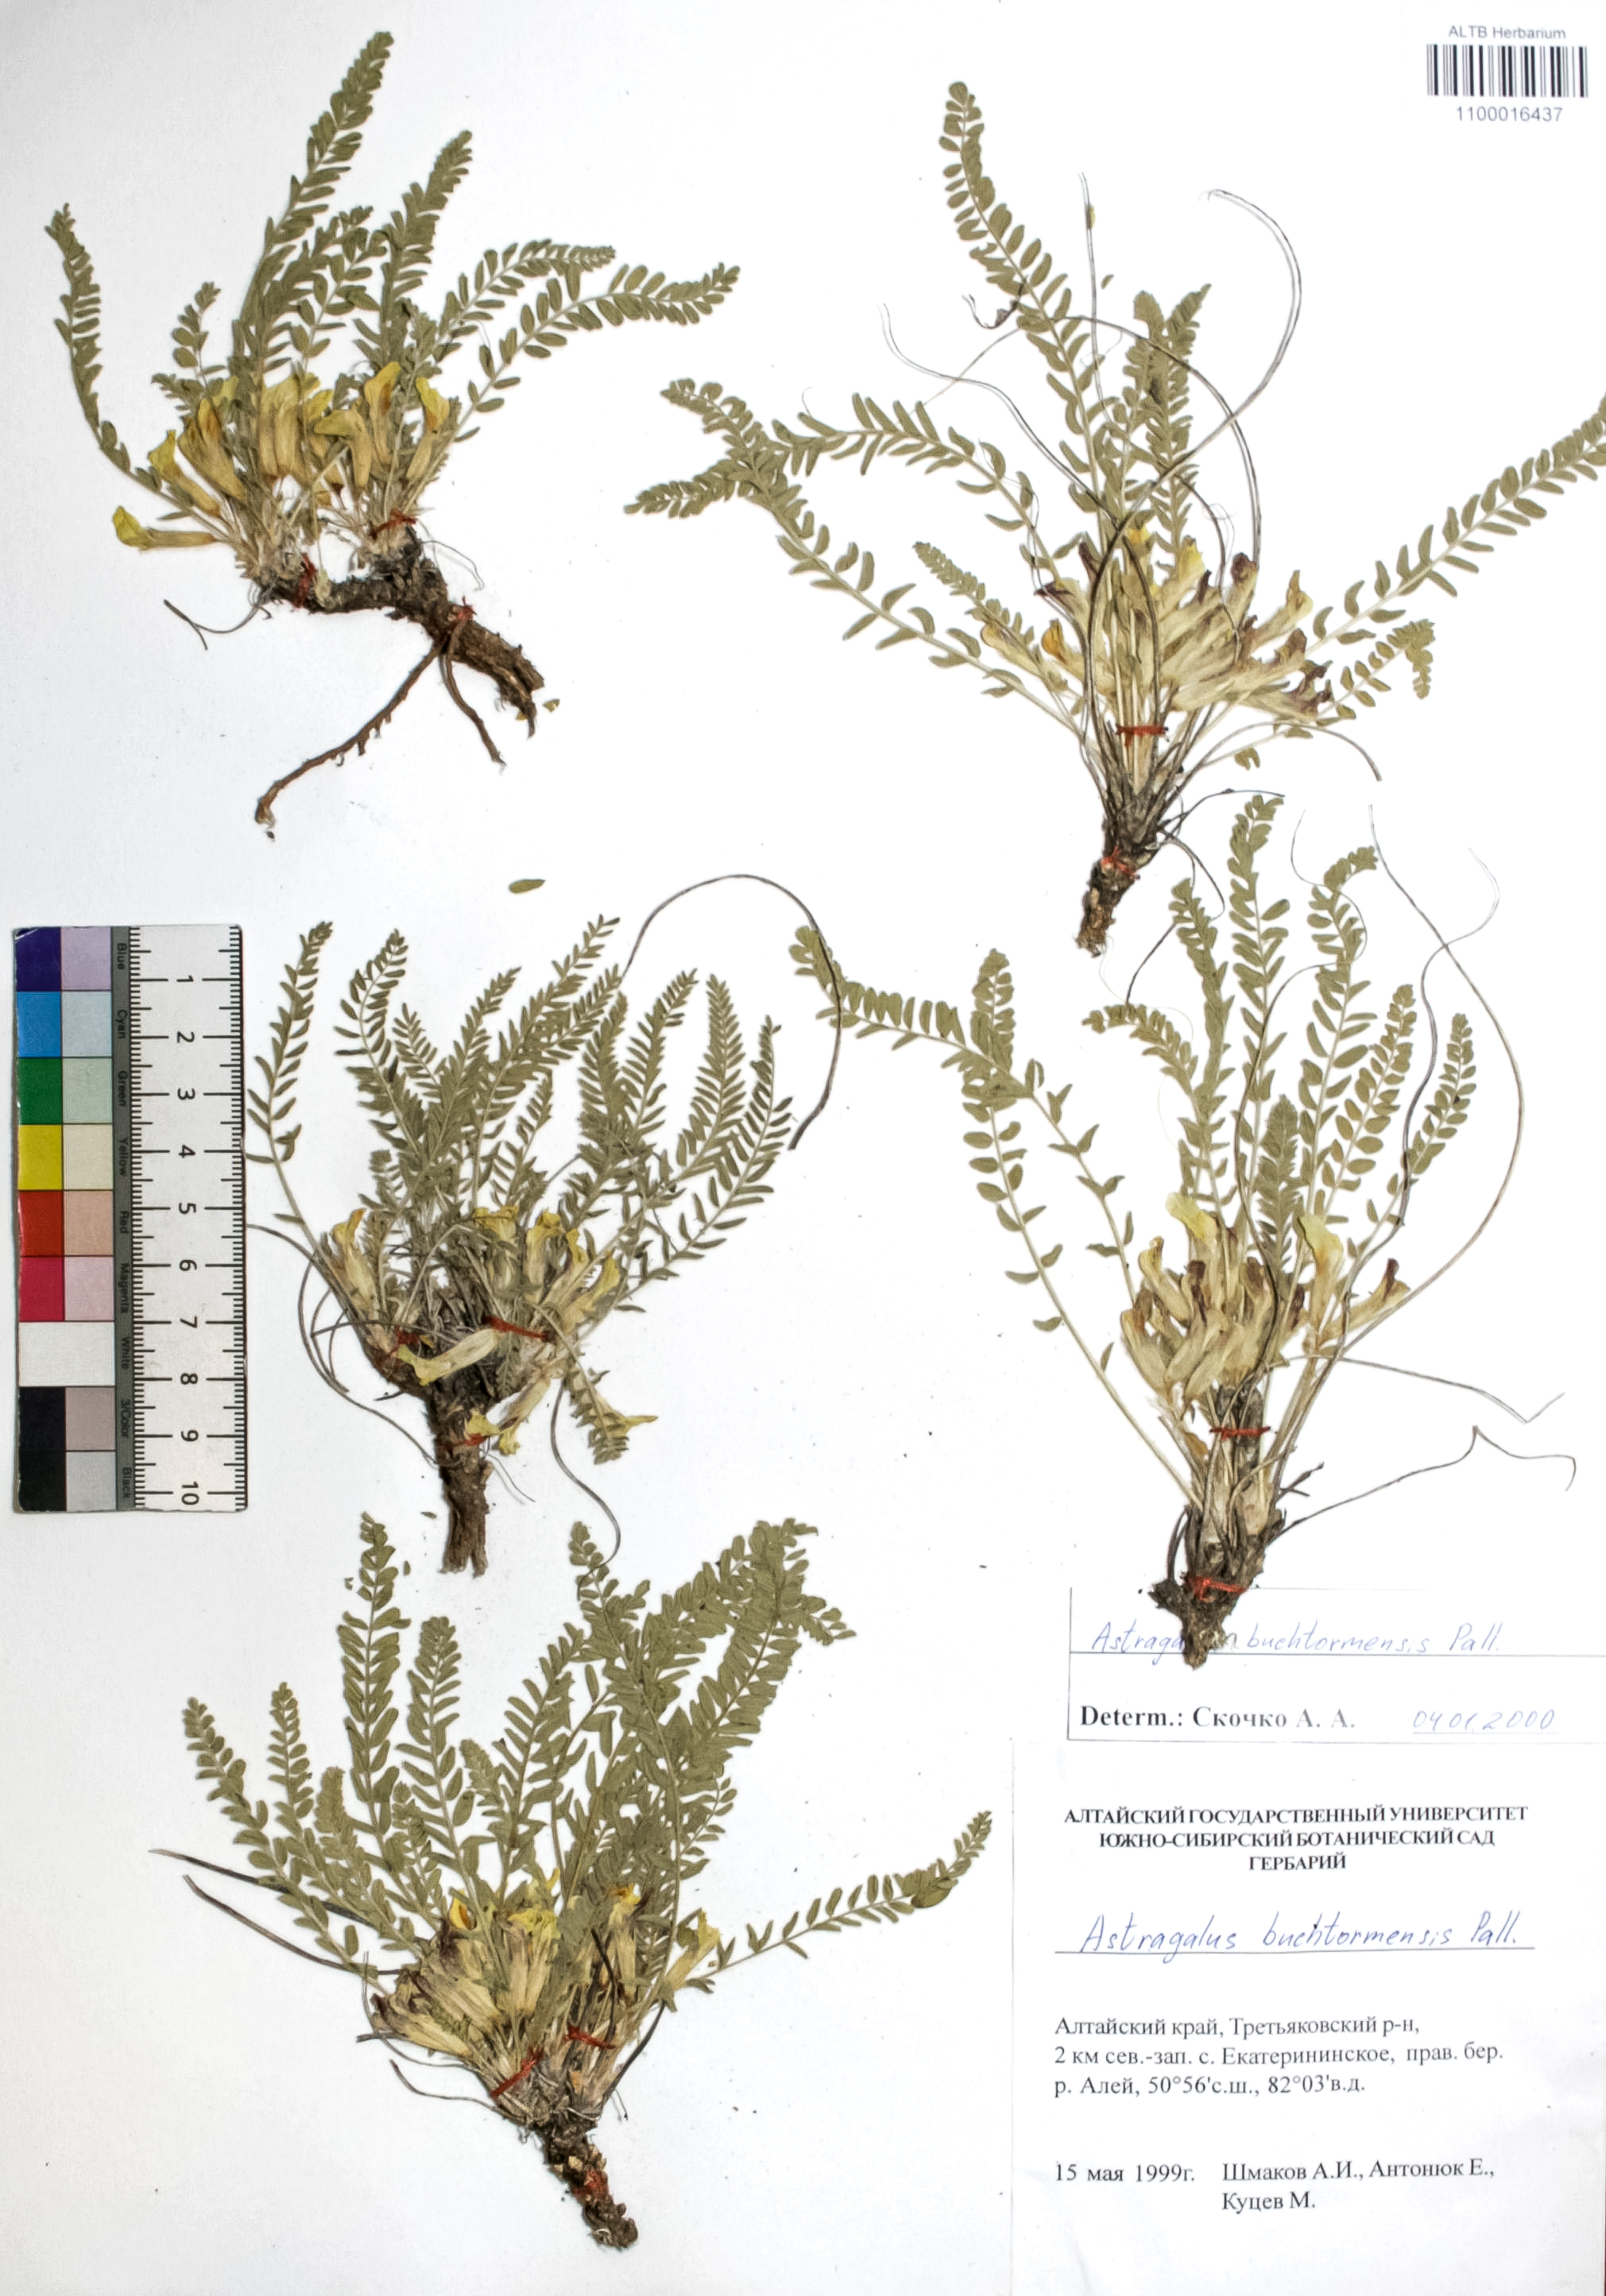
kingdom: Plantae
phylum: Tracheophyta
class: Magnoliopsida
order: Fabales
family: Fabaceae
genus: Astragalus
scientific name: Astragalus buchtormensis
